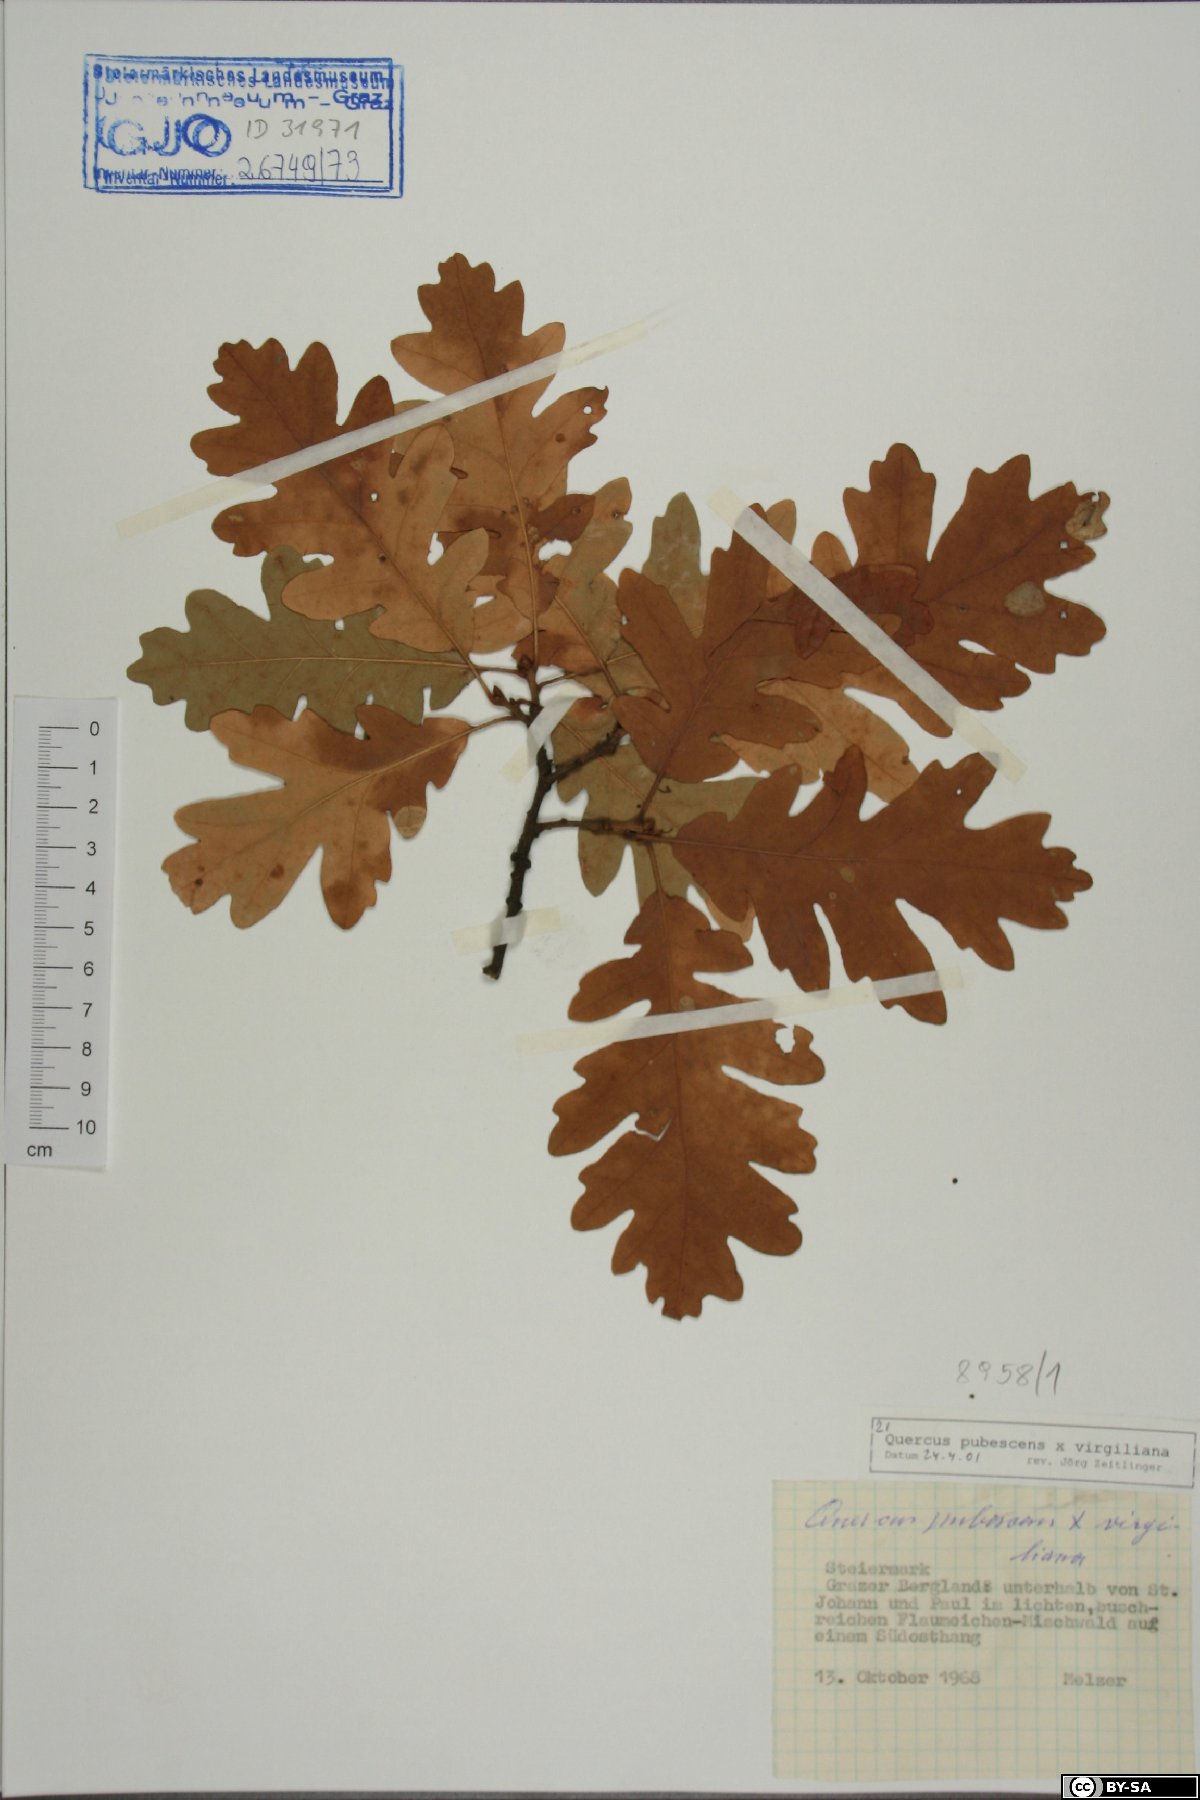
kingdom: Plantae
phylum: Tracheophyta
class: Magnoliopsida
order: Fagales
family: Fagaceae
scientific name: Fagaceae
